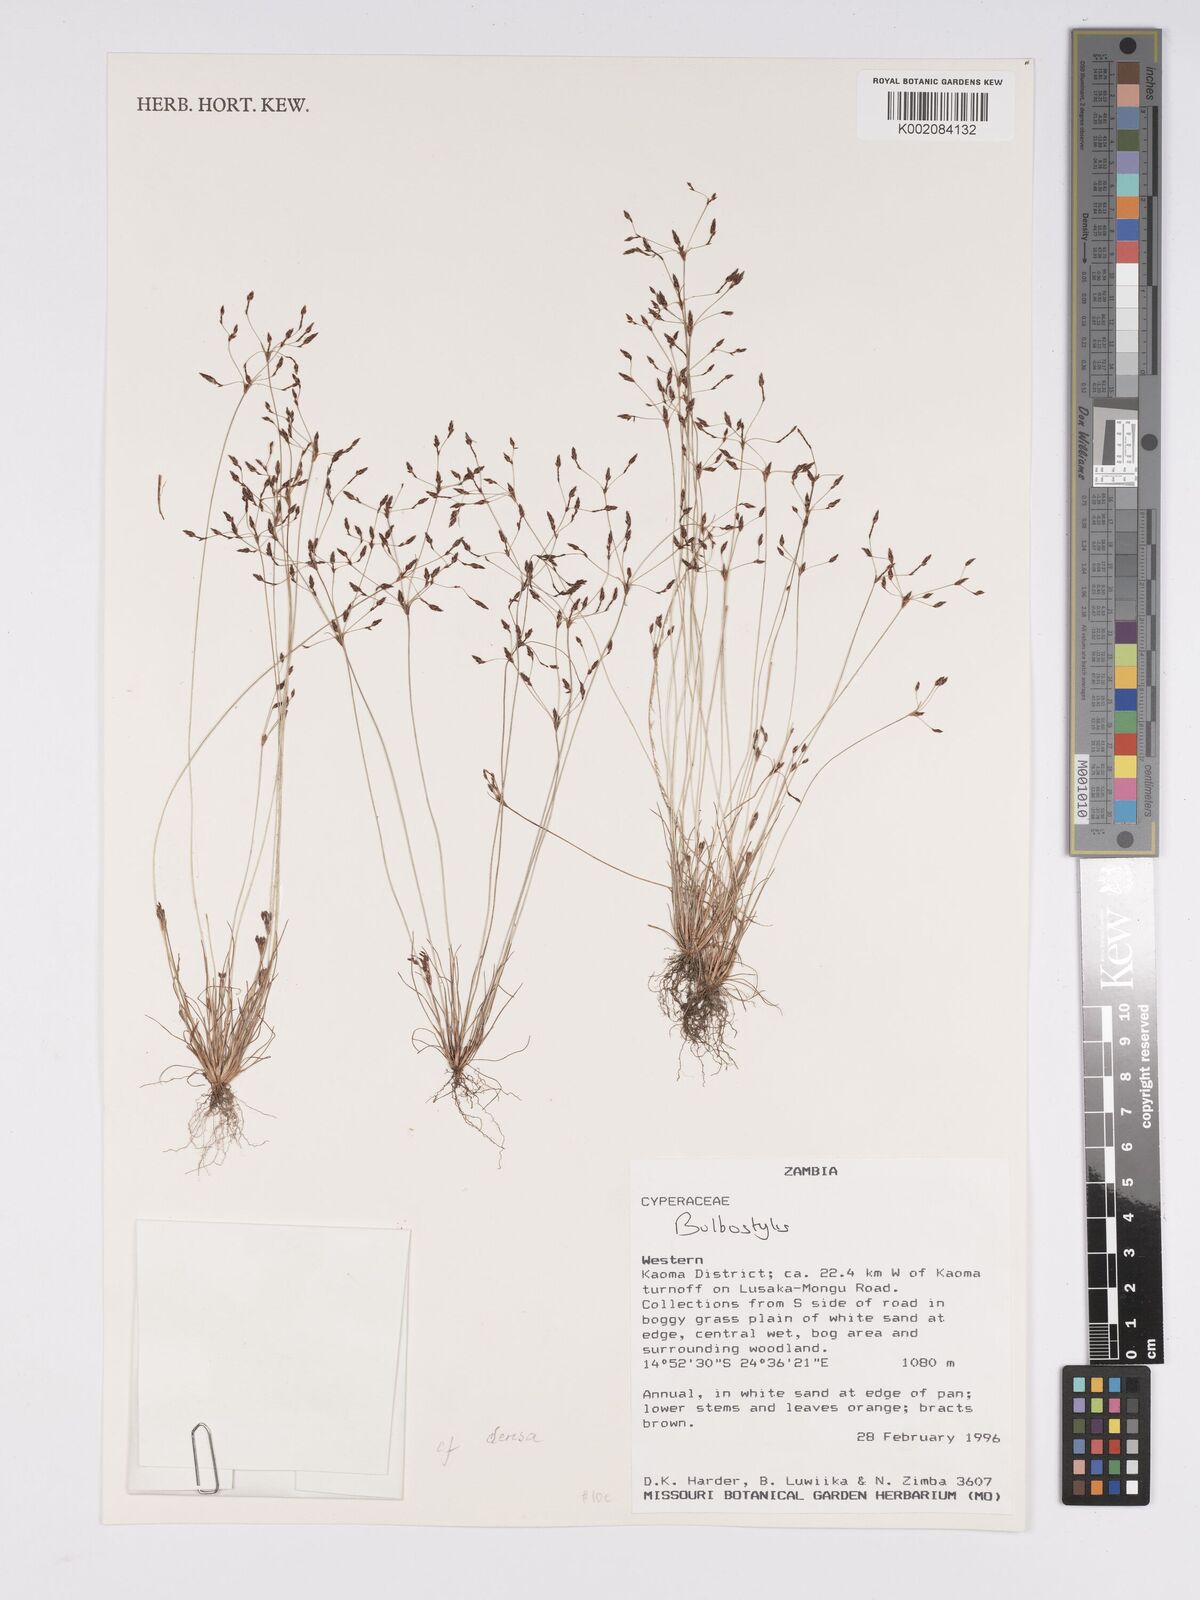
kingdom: Plantae
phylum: Tracheophyta
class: Liliopsida
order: Poales
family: Cyperaceae
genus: Bulbostylis
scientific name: Bulbostylis
